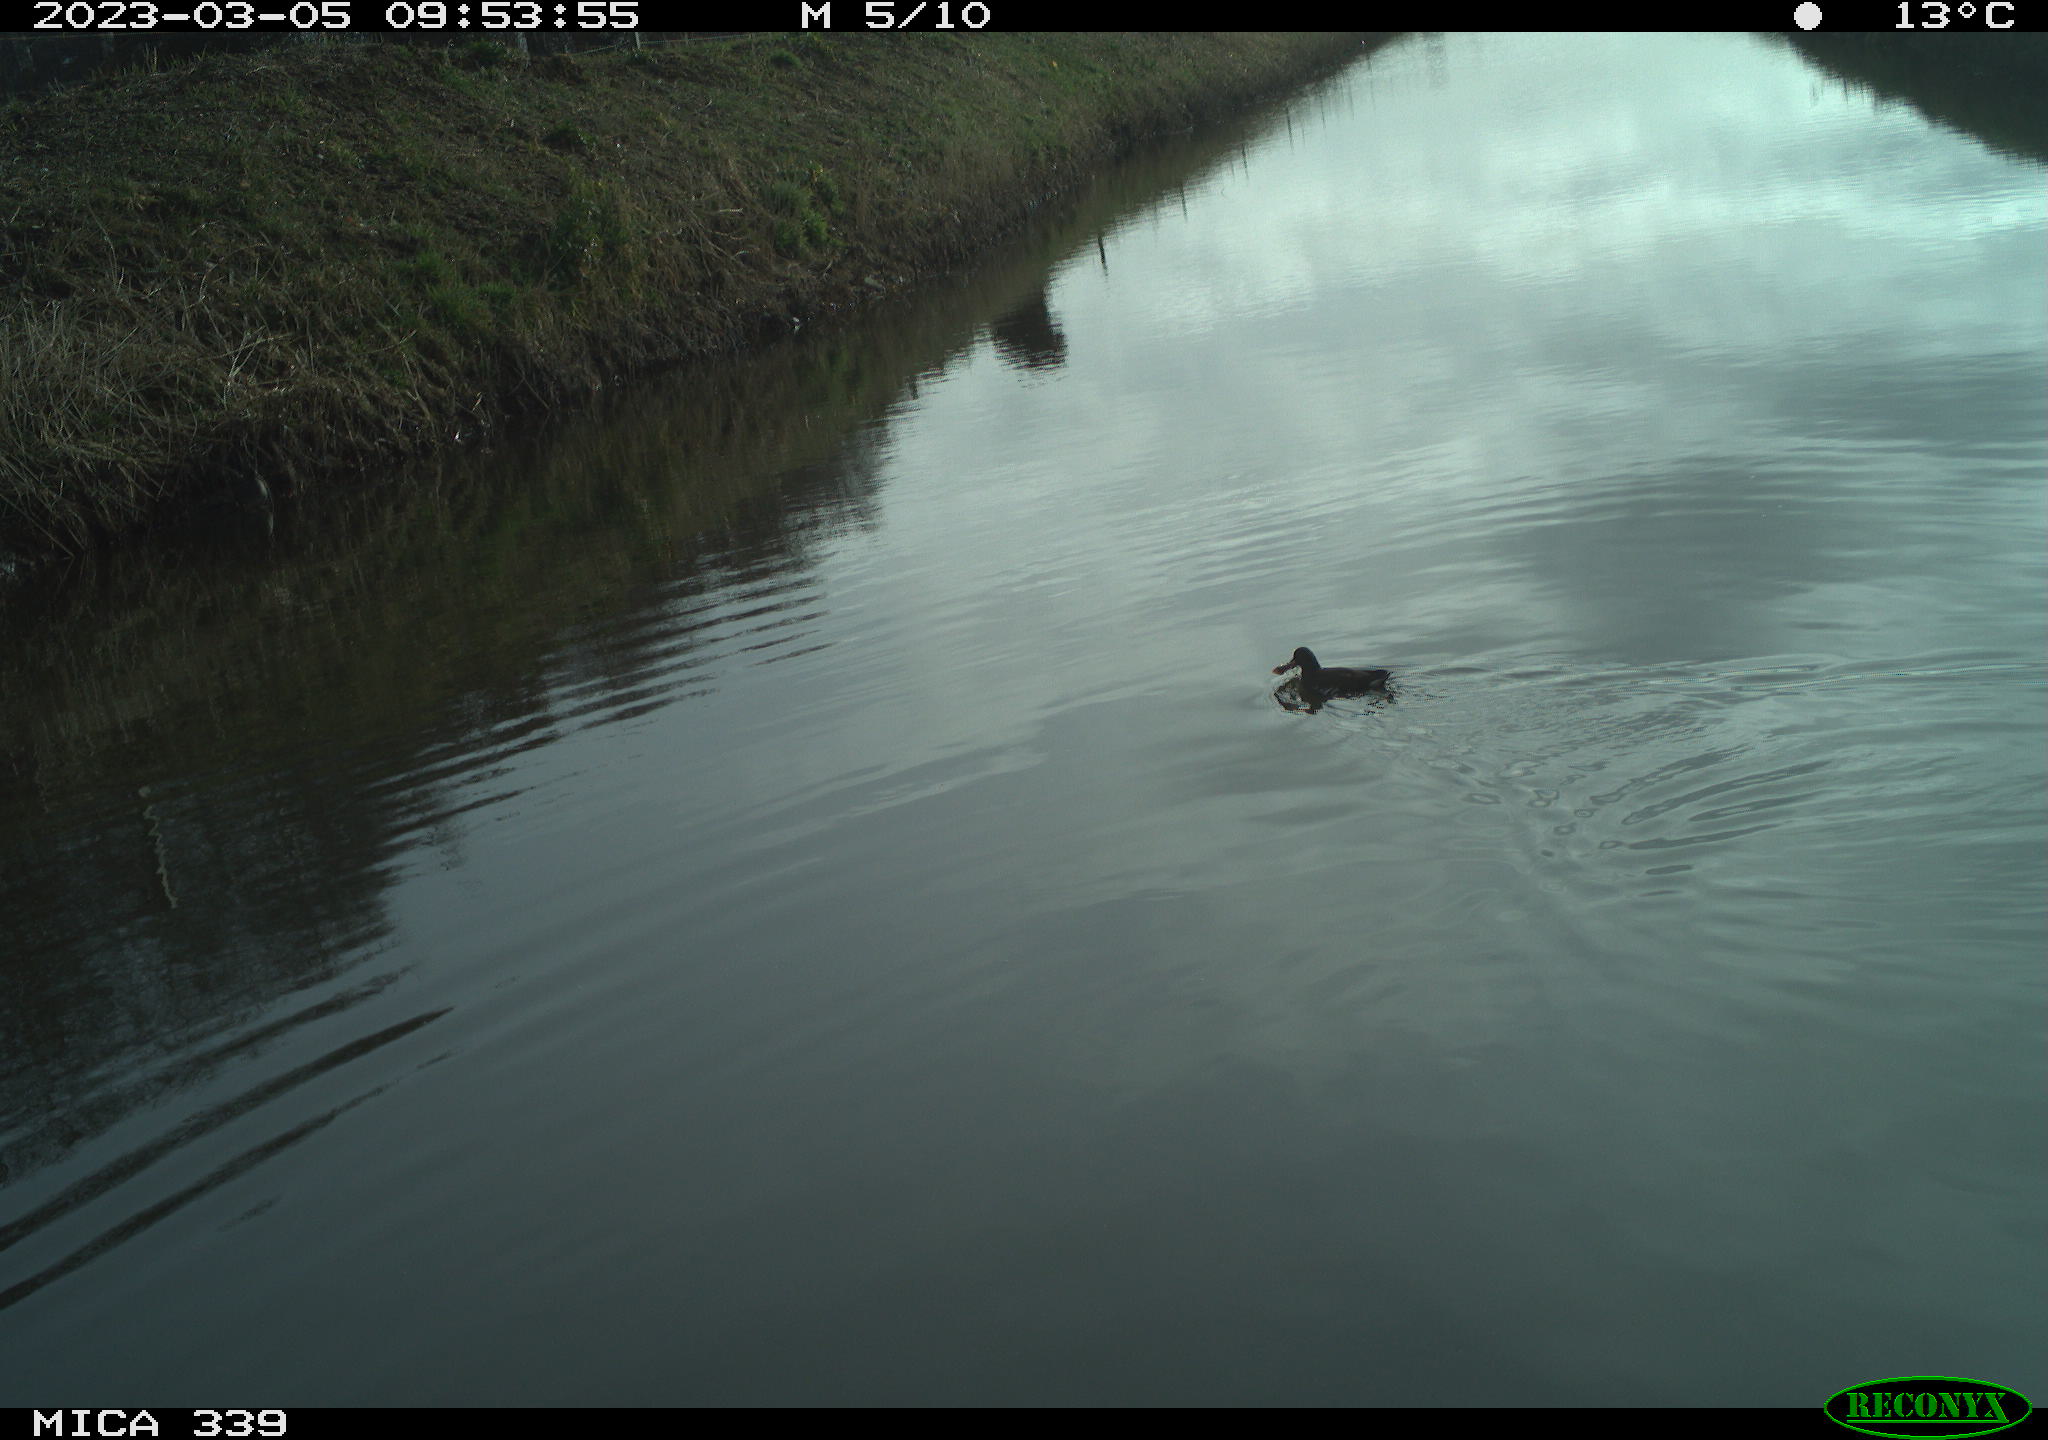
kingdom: Animalia
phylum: Chordata
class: Aves
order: Gruiformes
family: Rallidae
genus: Gallinula
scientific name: Gallinula chloropus
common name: Common moorhen
